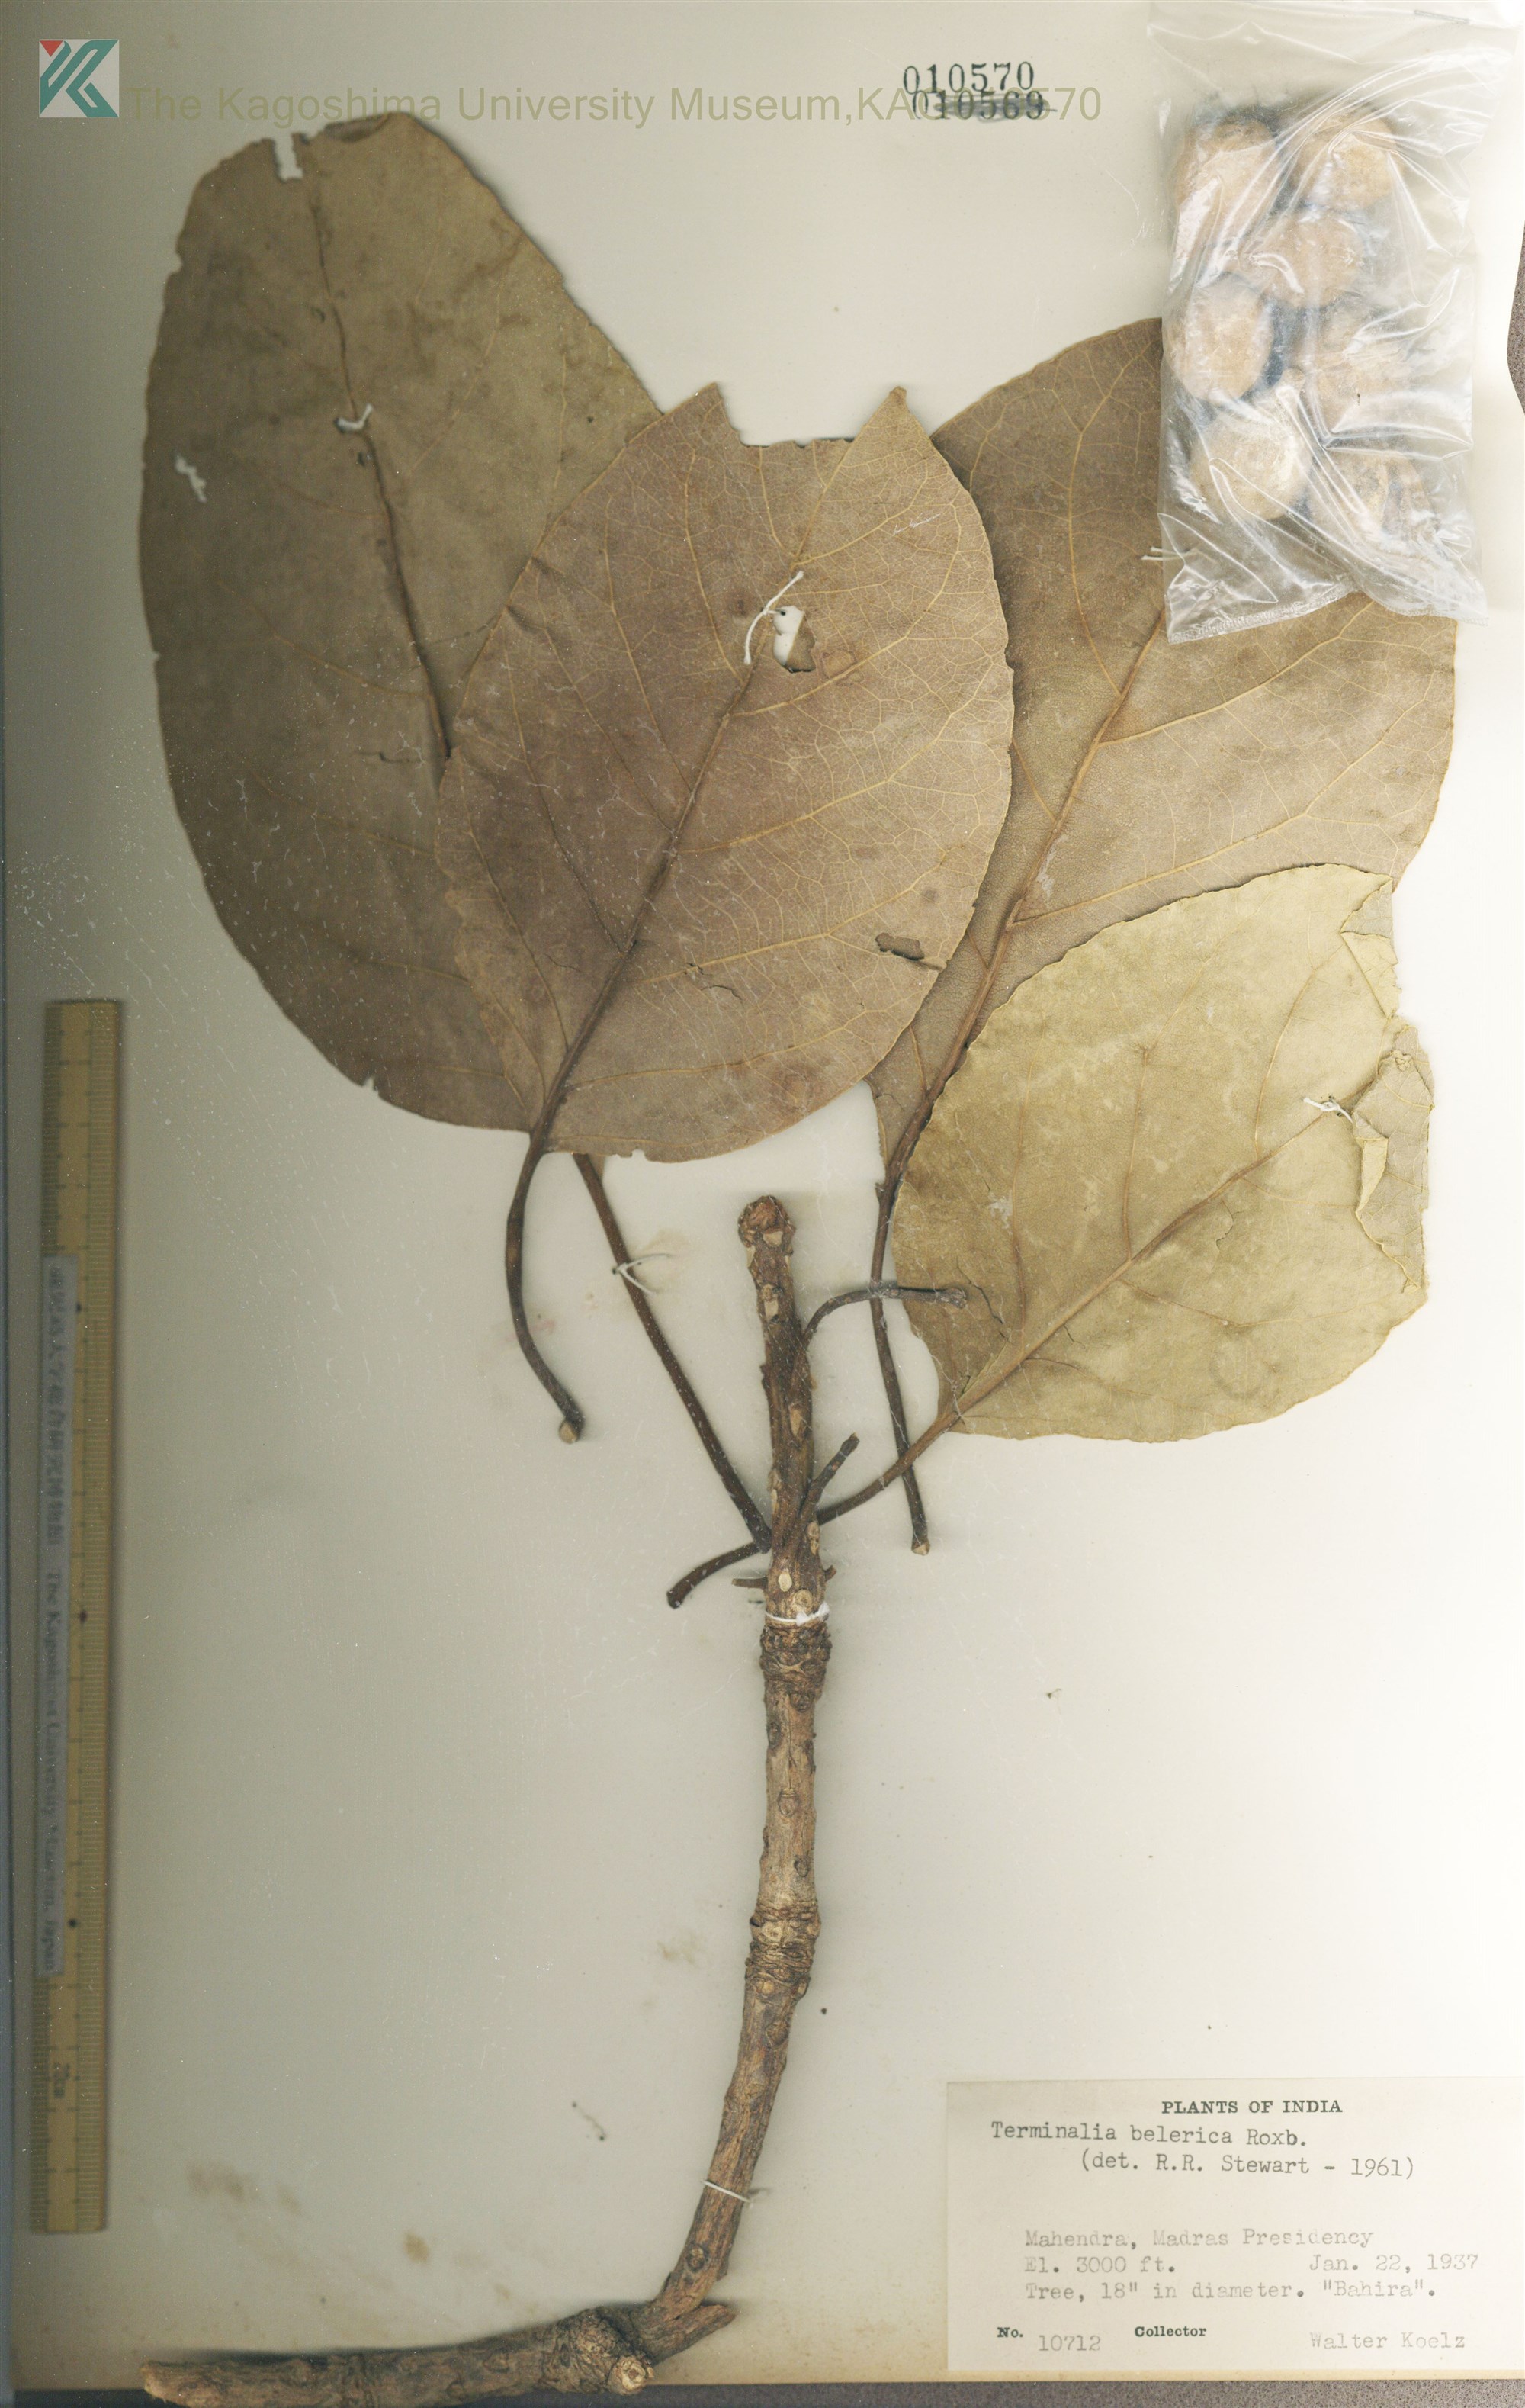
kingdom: Plantae
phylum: Tracheophyta
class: Magnoliopsida
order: Myrtales
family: Combretaceae
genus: Terminalia
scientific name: Terminalia bellirica
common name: Beleric myrobalan
